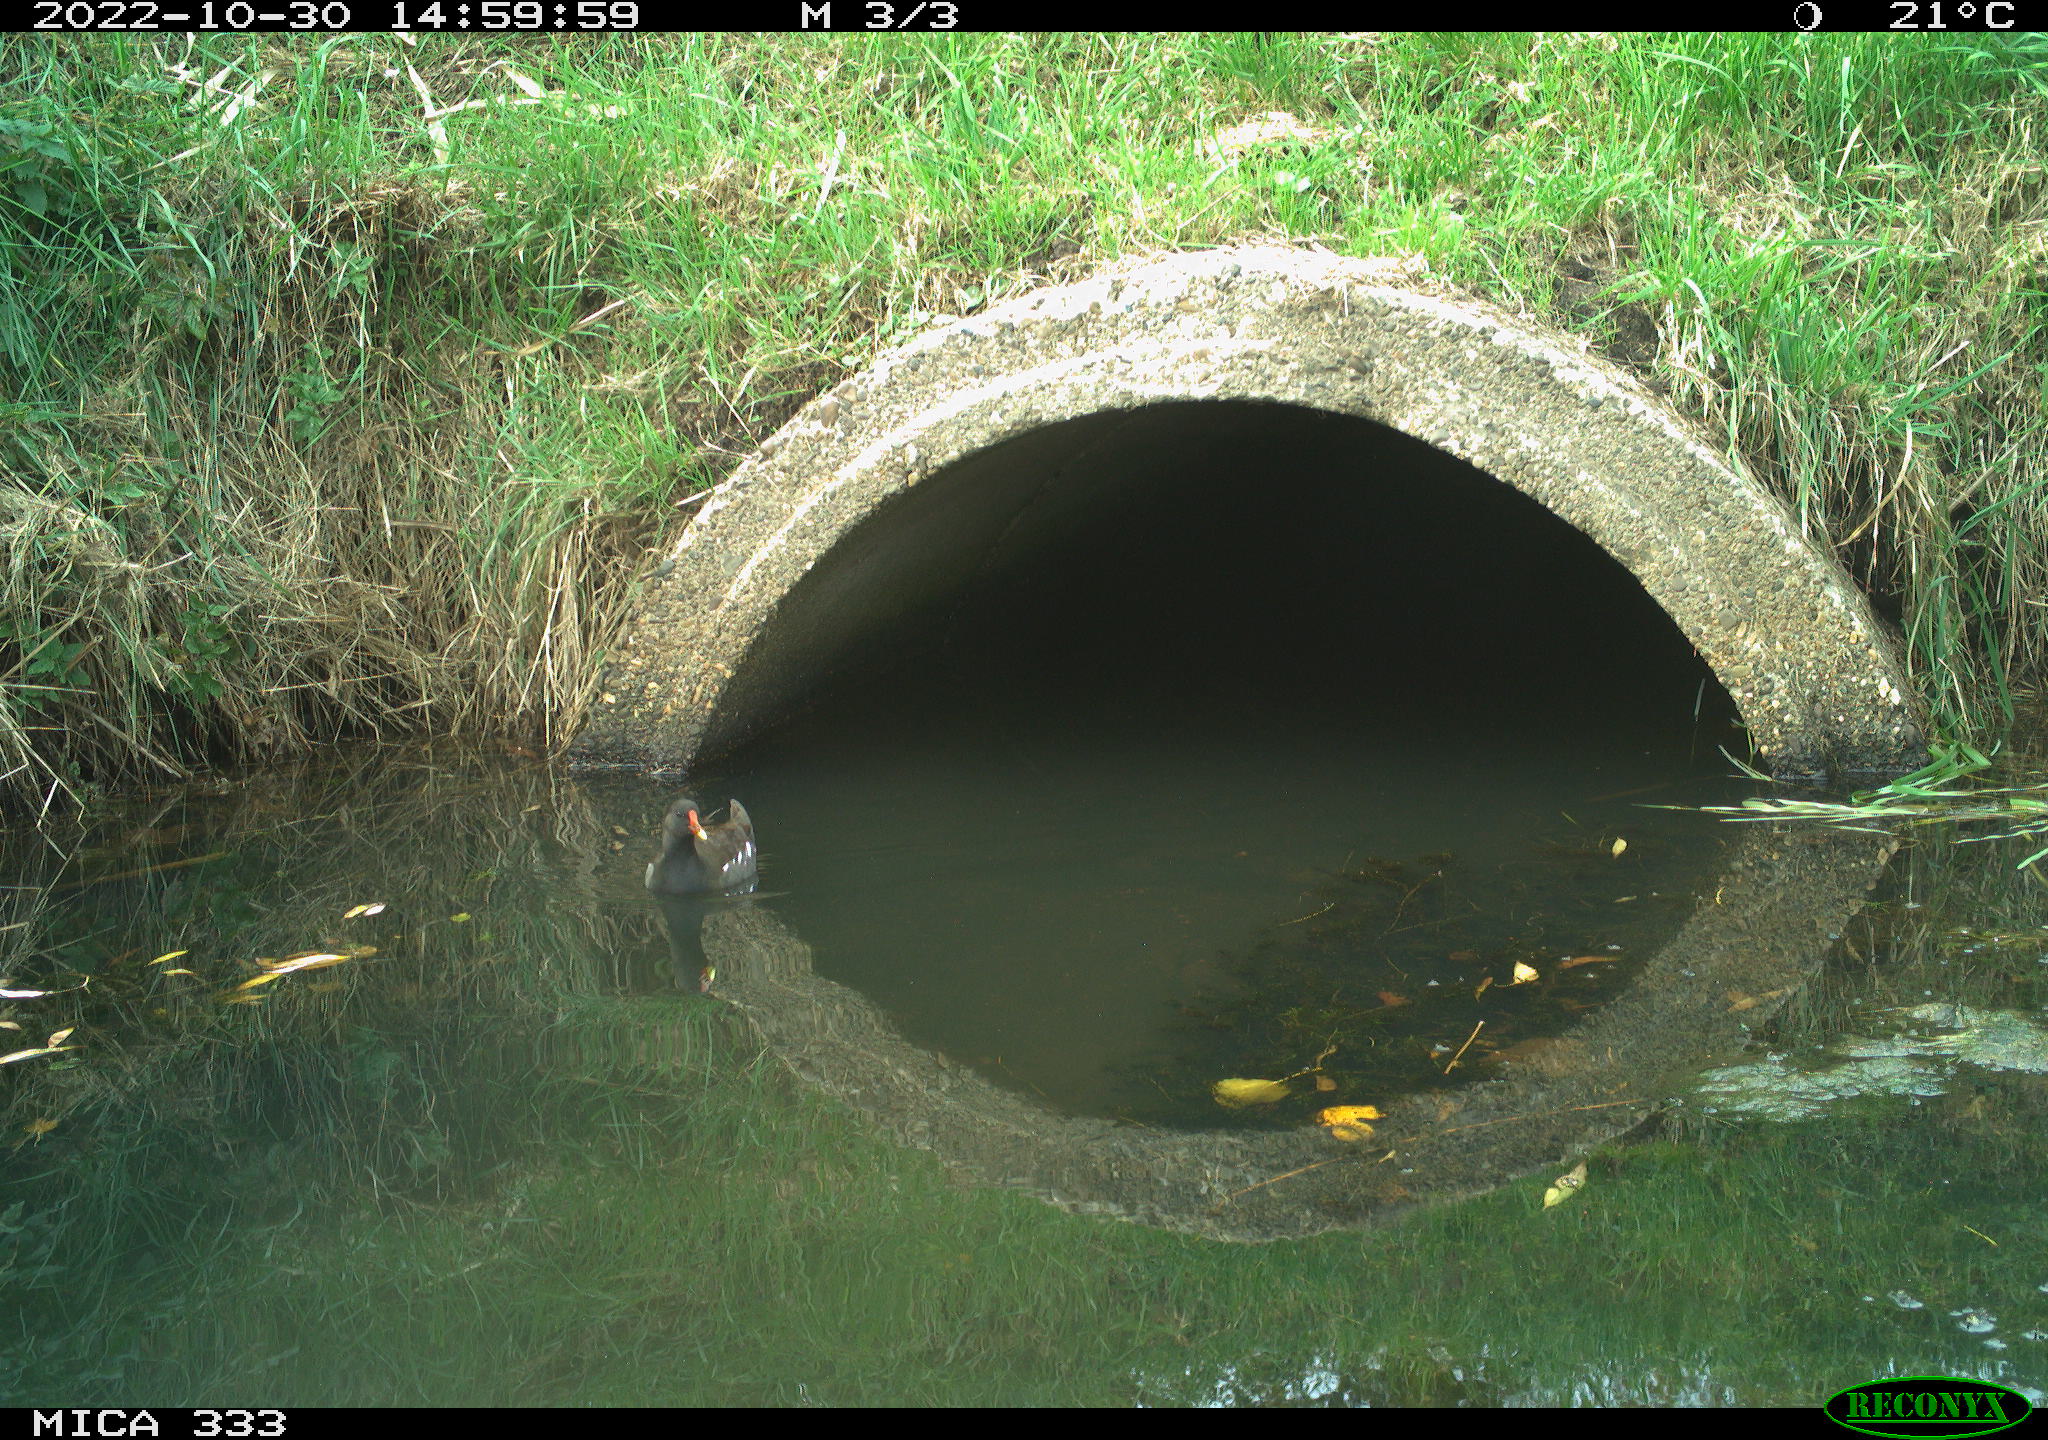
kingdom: Animalia
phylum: Chordata
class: Aves
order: Gruiformes
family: Rallidae
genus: Gallinula
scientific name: Gallinula chloropus
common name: Common moorhen
